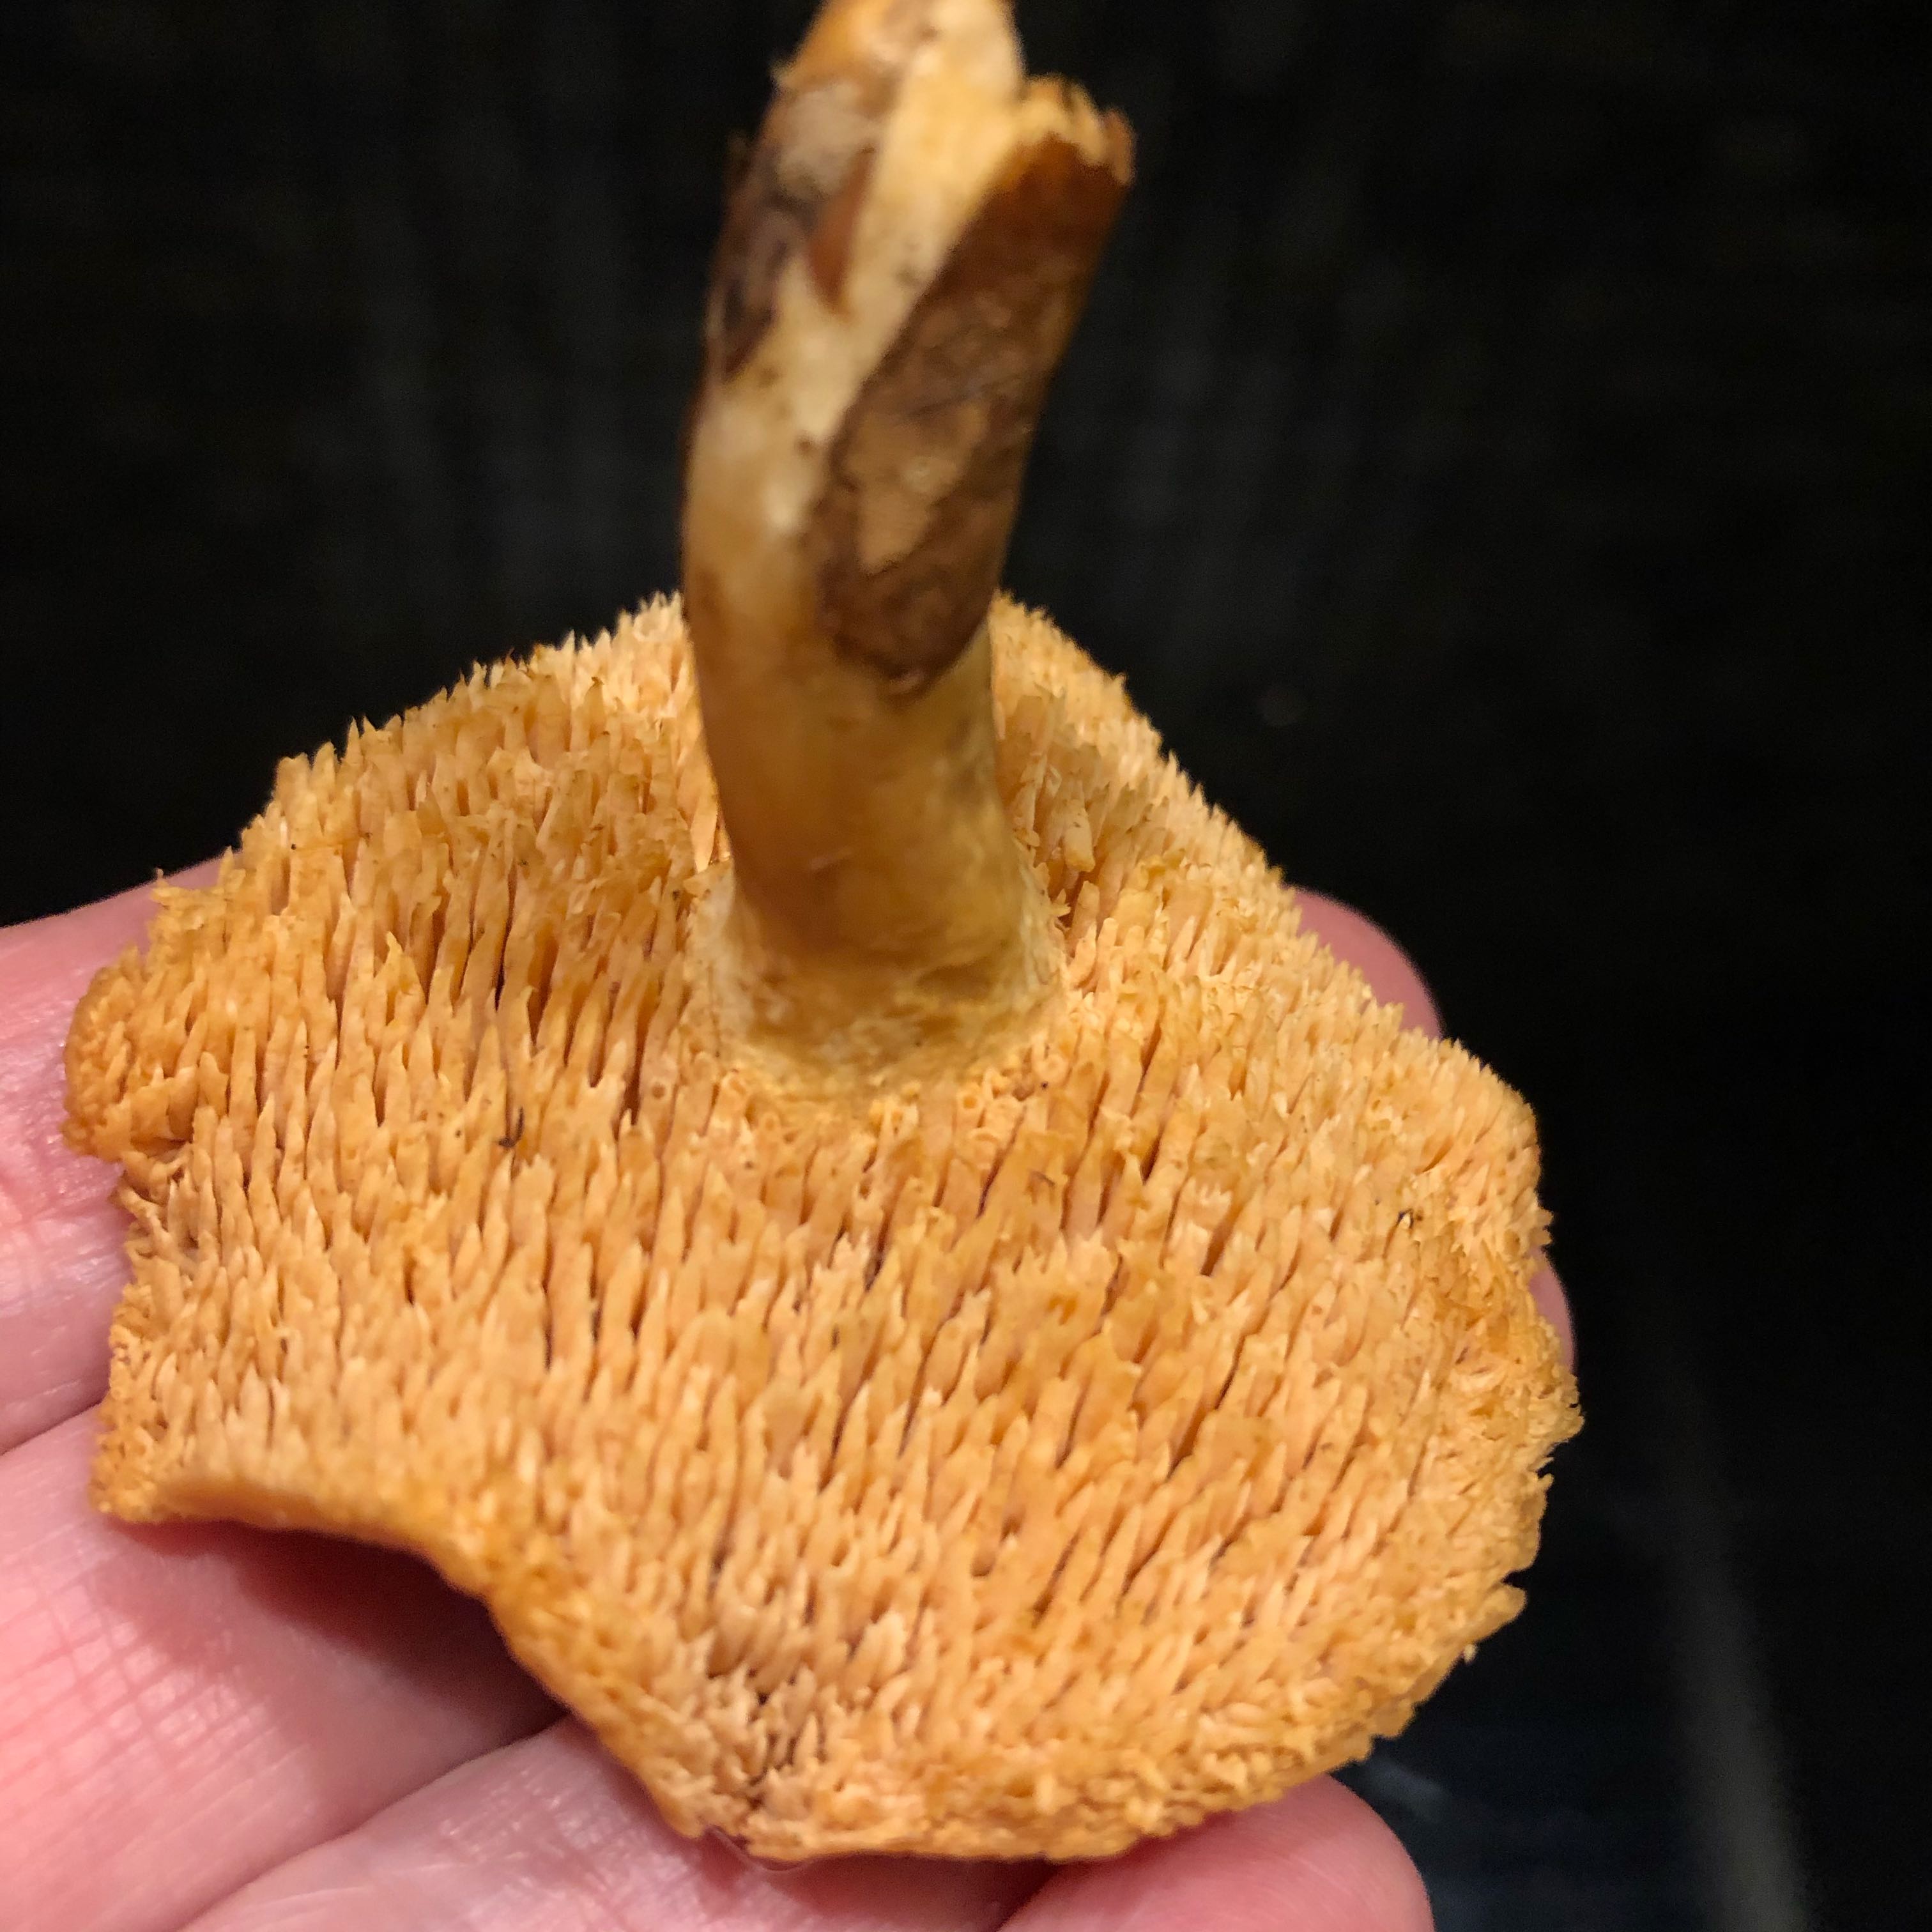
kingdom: Fungi
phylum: Basidiomycota
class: Agaricomycetes
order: Cantharellales
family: Hydnaceae
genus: Hydnum
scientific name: Hydnum
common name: pigsvamp
